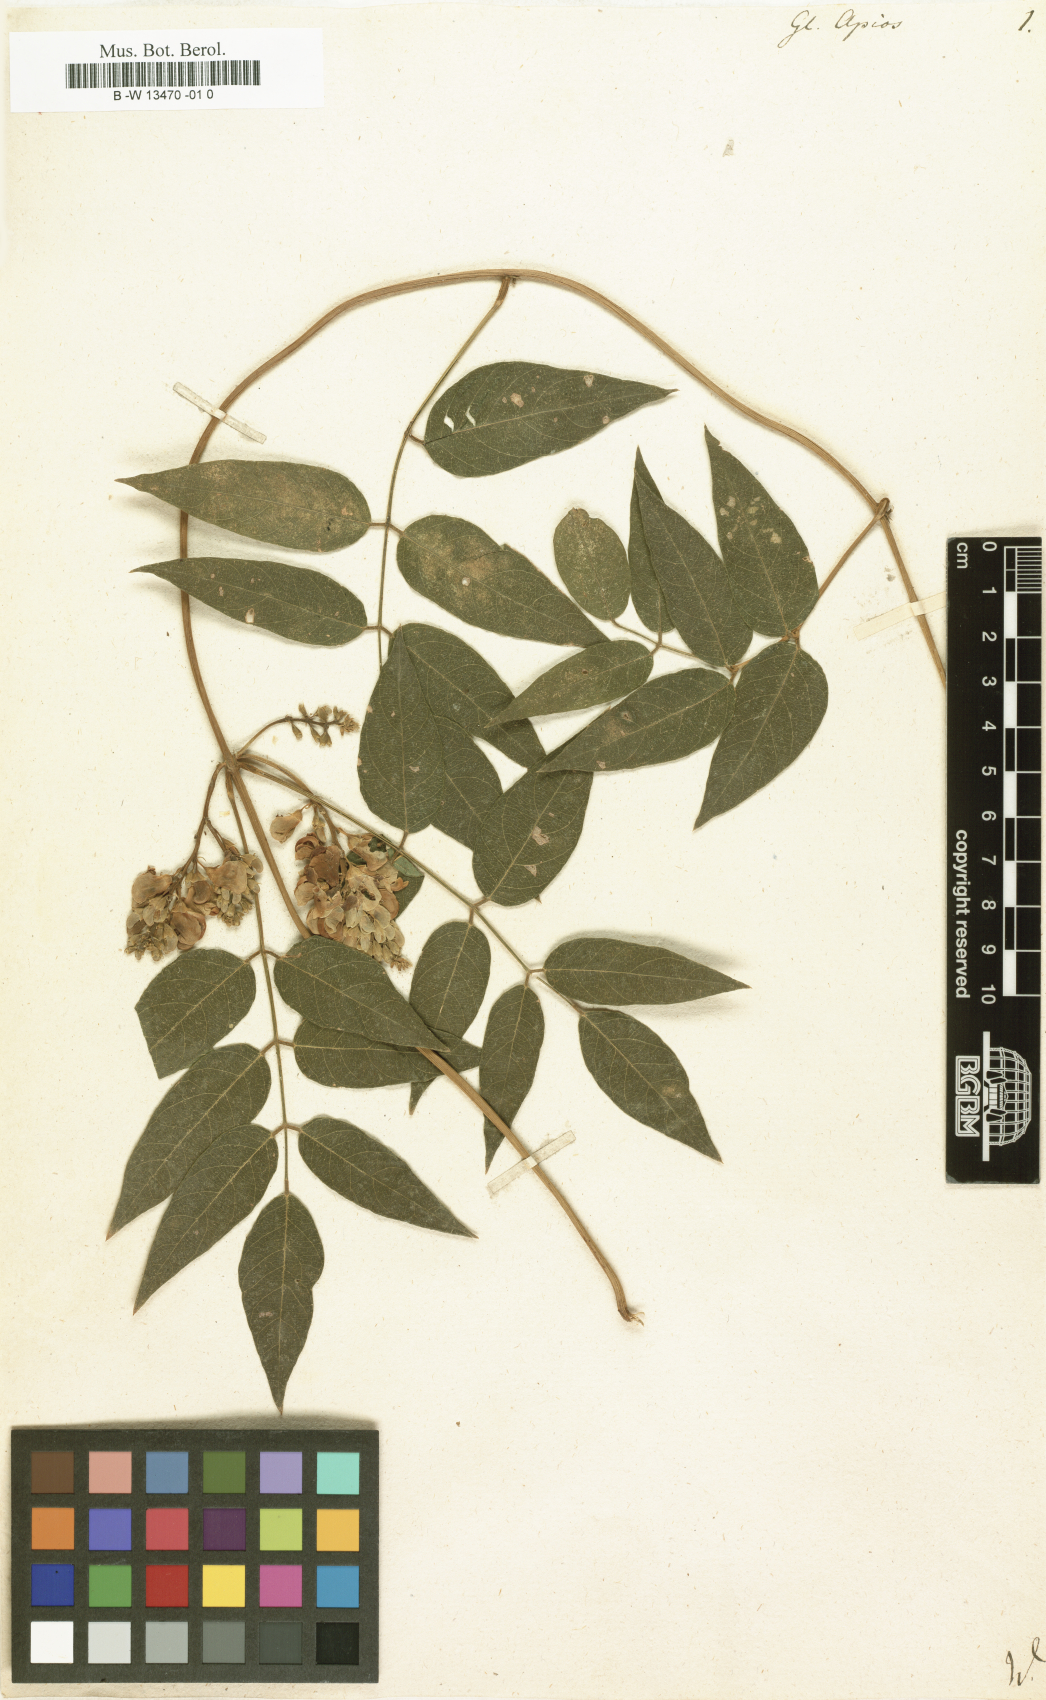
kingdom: Plantae
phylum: Tracheophyta
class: Magnoliopsida
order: Fabales
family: Fabaceae
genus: Apios
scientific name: Apios americana
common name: American potato-bean
